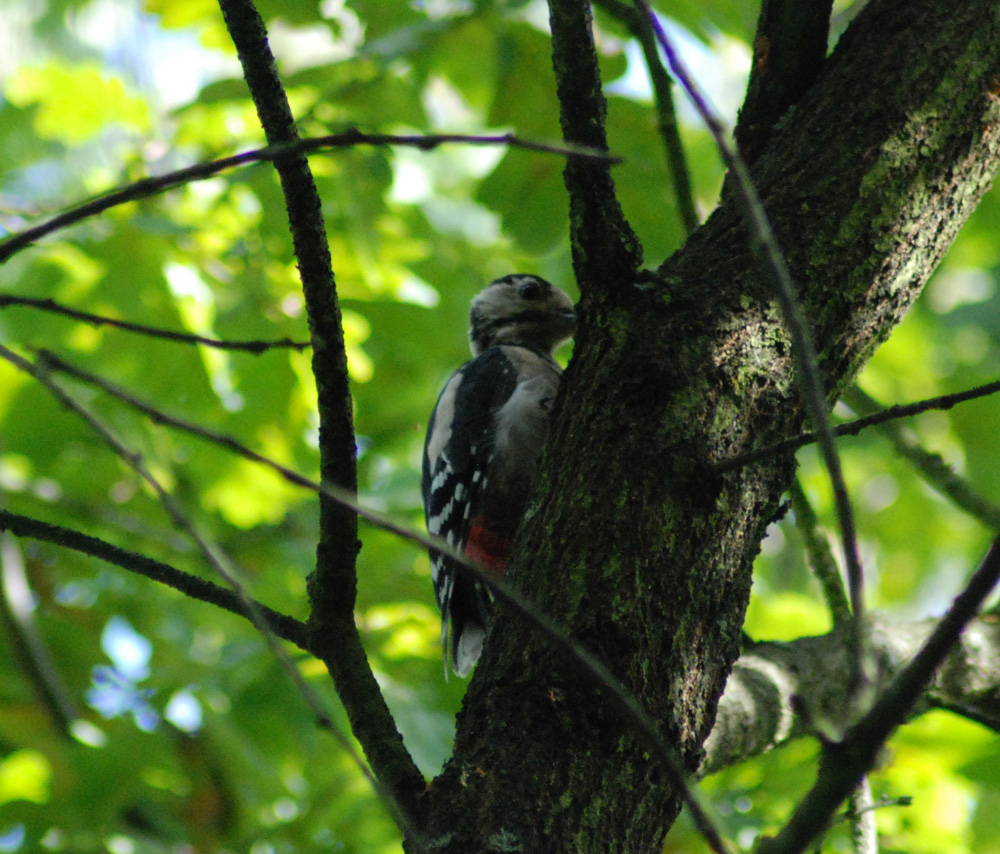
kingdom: Animalia
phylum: Chordata
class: Aves
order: Piciformes
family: Picidae
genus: Dendrocopos
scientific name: Dendrocopos major
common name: Great spotted woodpecker
